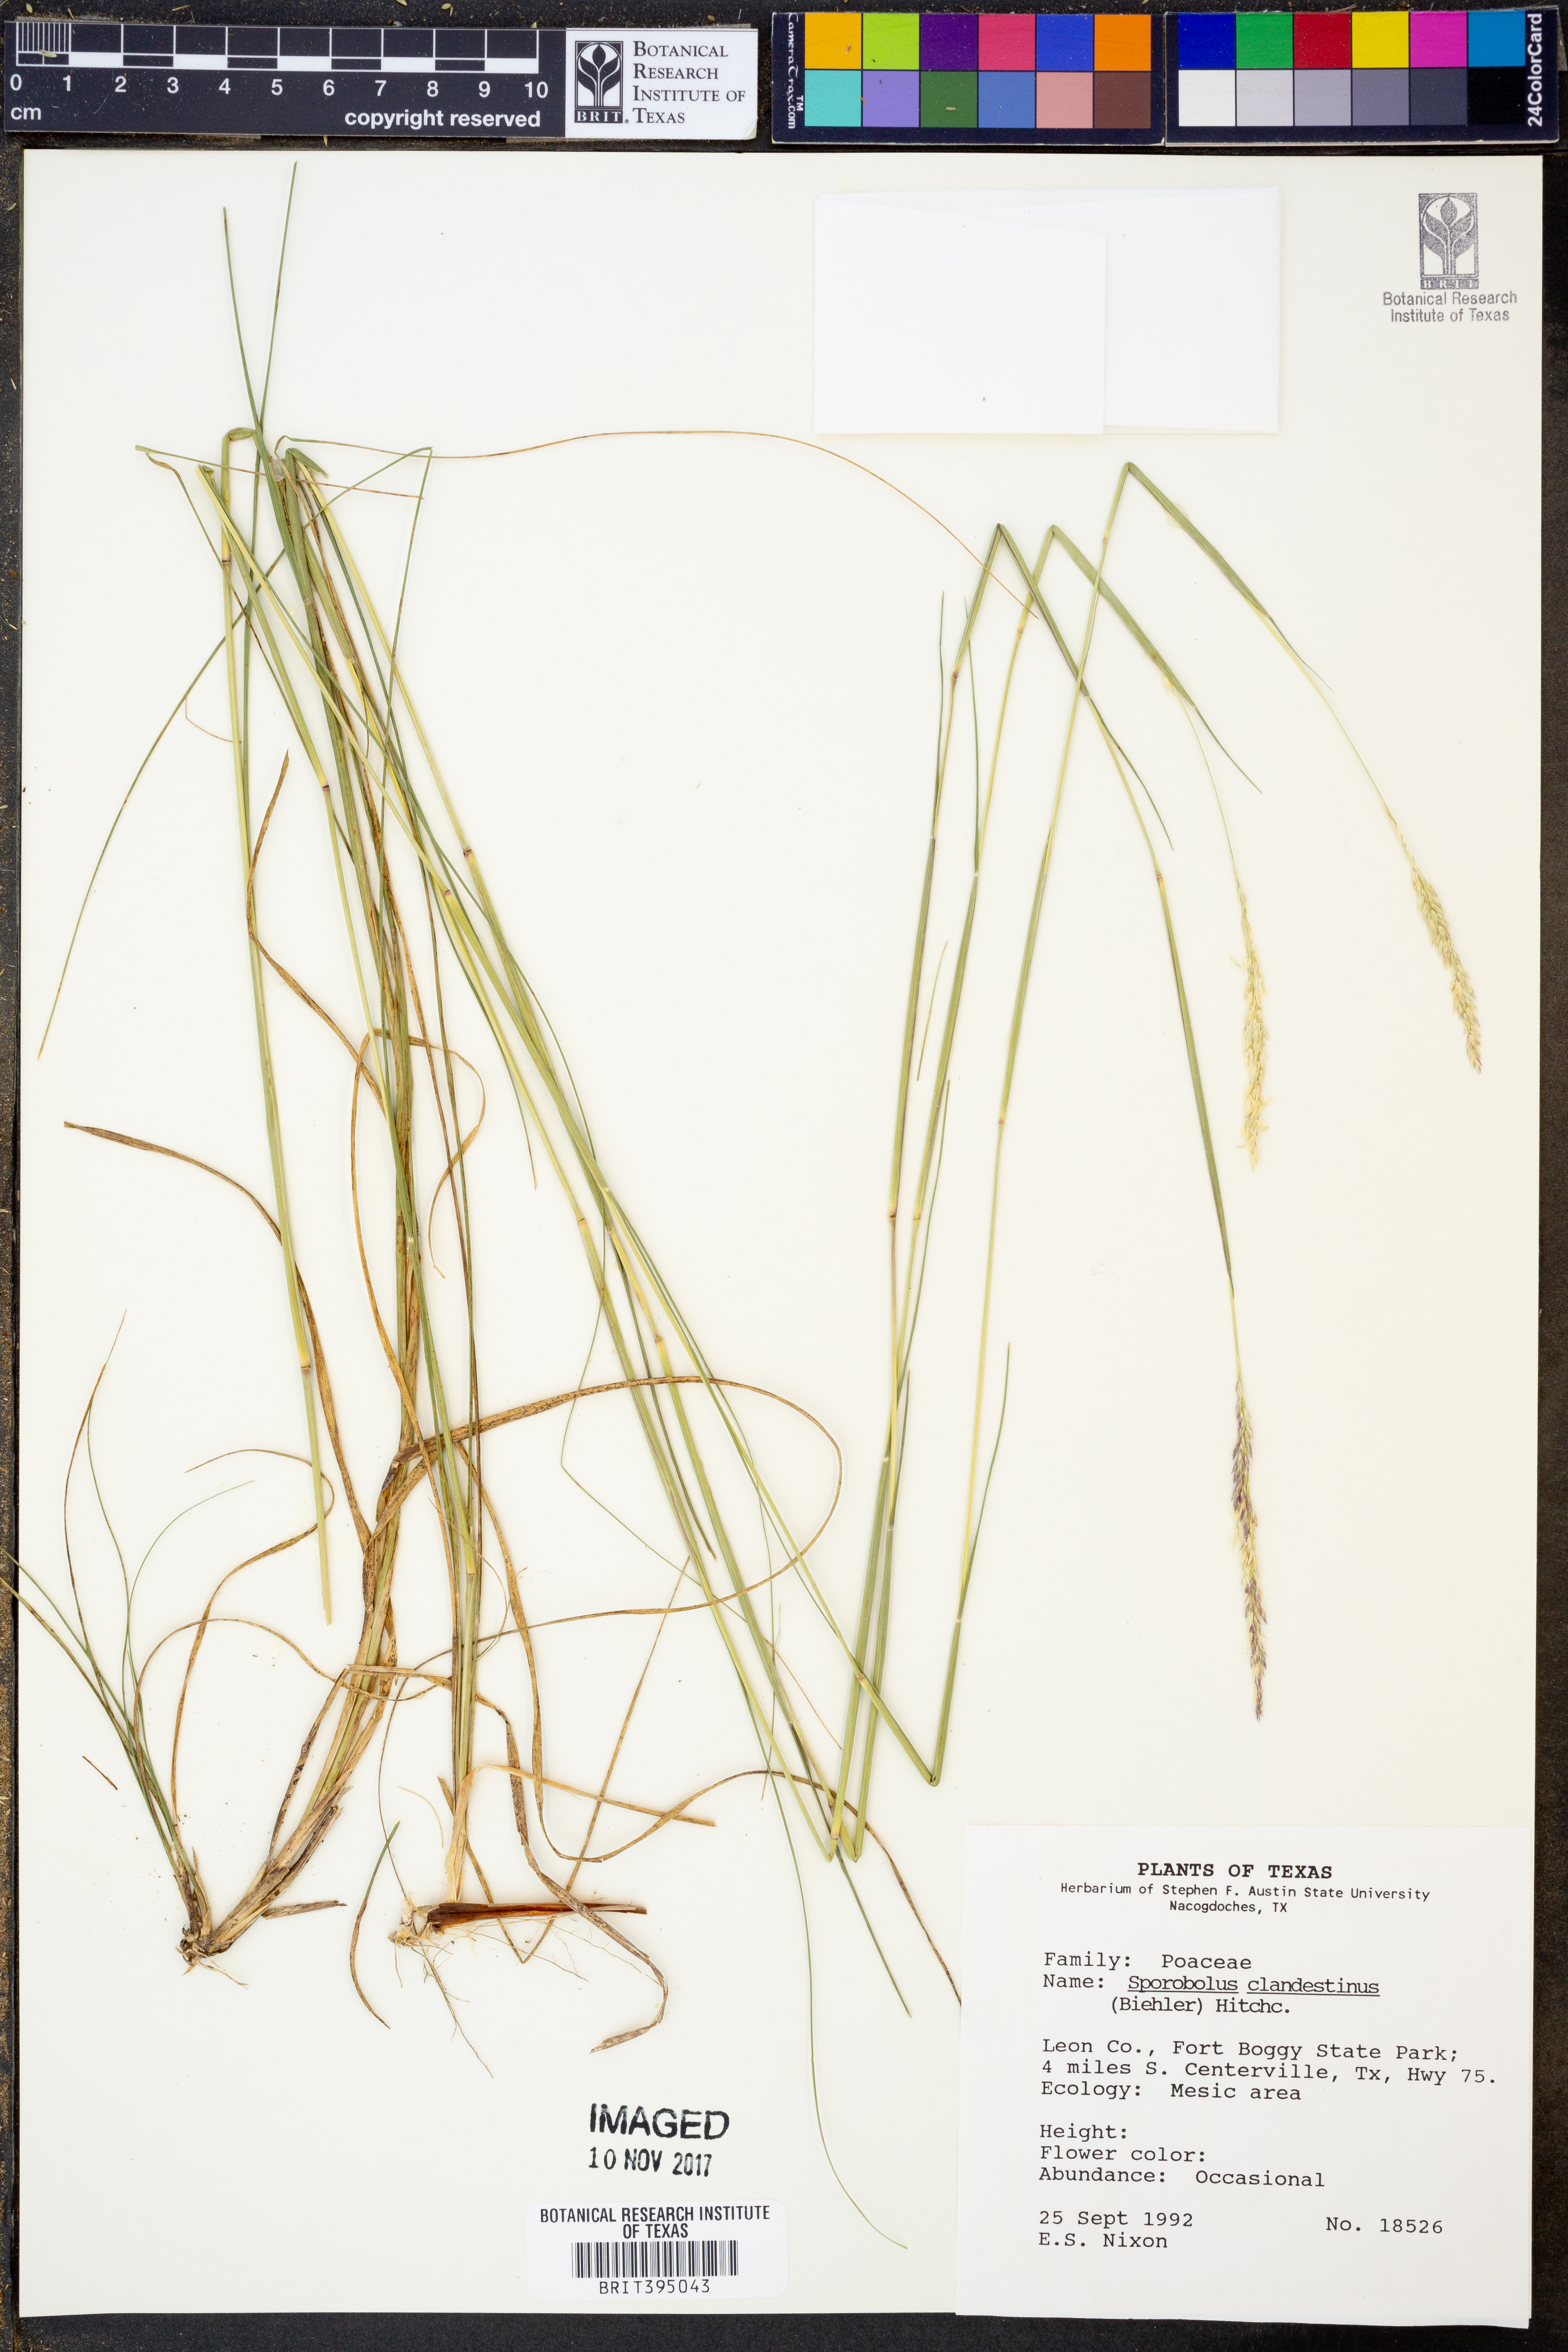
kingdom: Plantae
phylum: Tracheophyta
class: Liliopsida
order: Poales
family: Poaceae
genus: Sporobolus
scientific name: Sporobolus clandestinus
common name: Hidden dropseed
